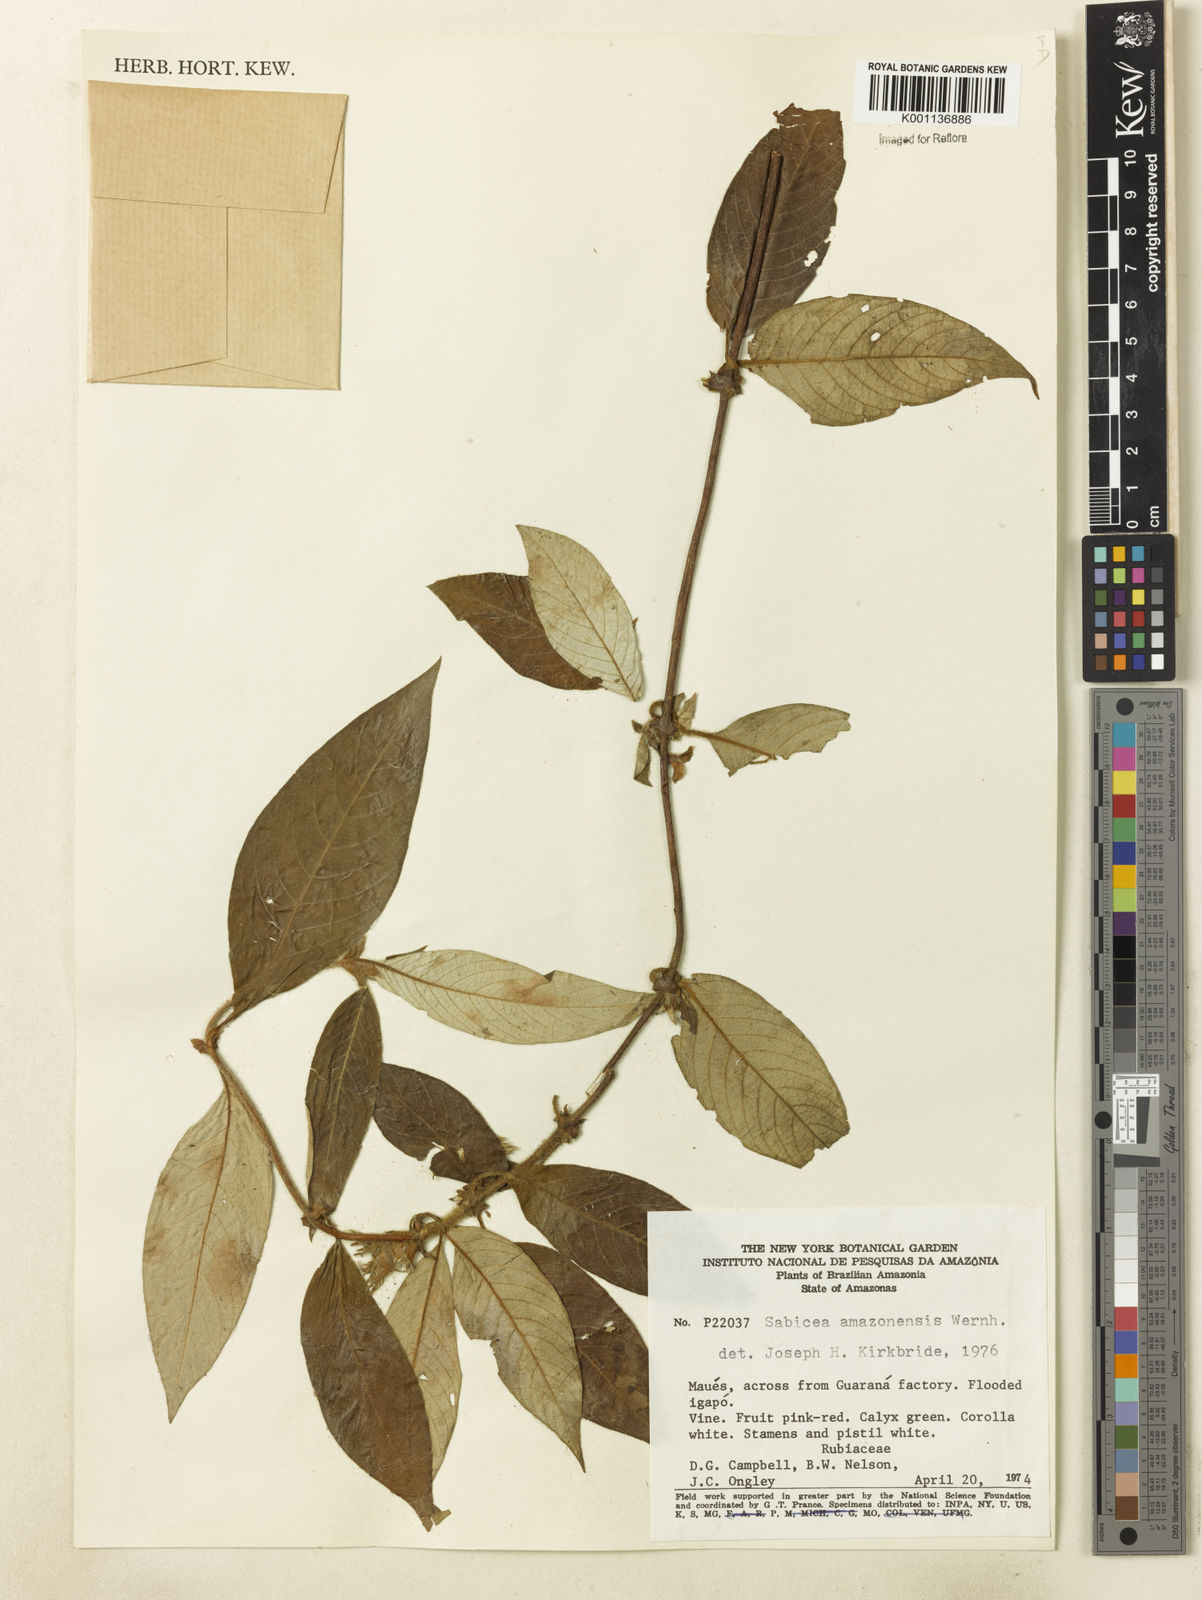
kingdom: Plantae
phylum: Tracheophyta
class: Magnoliopsida
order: Gentianales
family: Rubiaceae
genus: Sabicea
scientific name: Sabicea amazonensis
